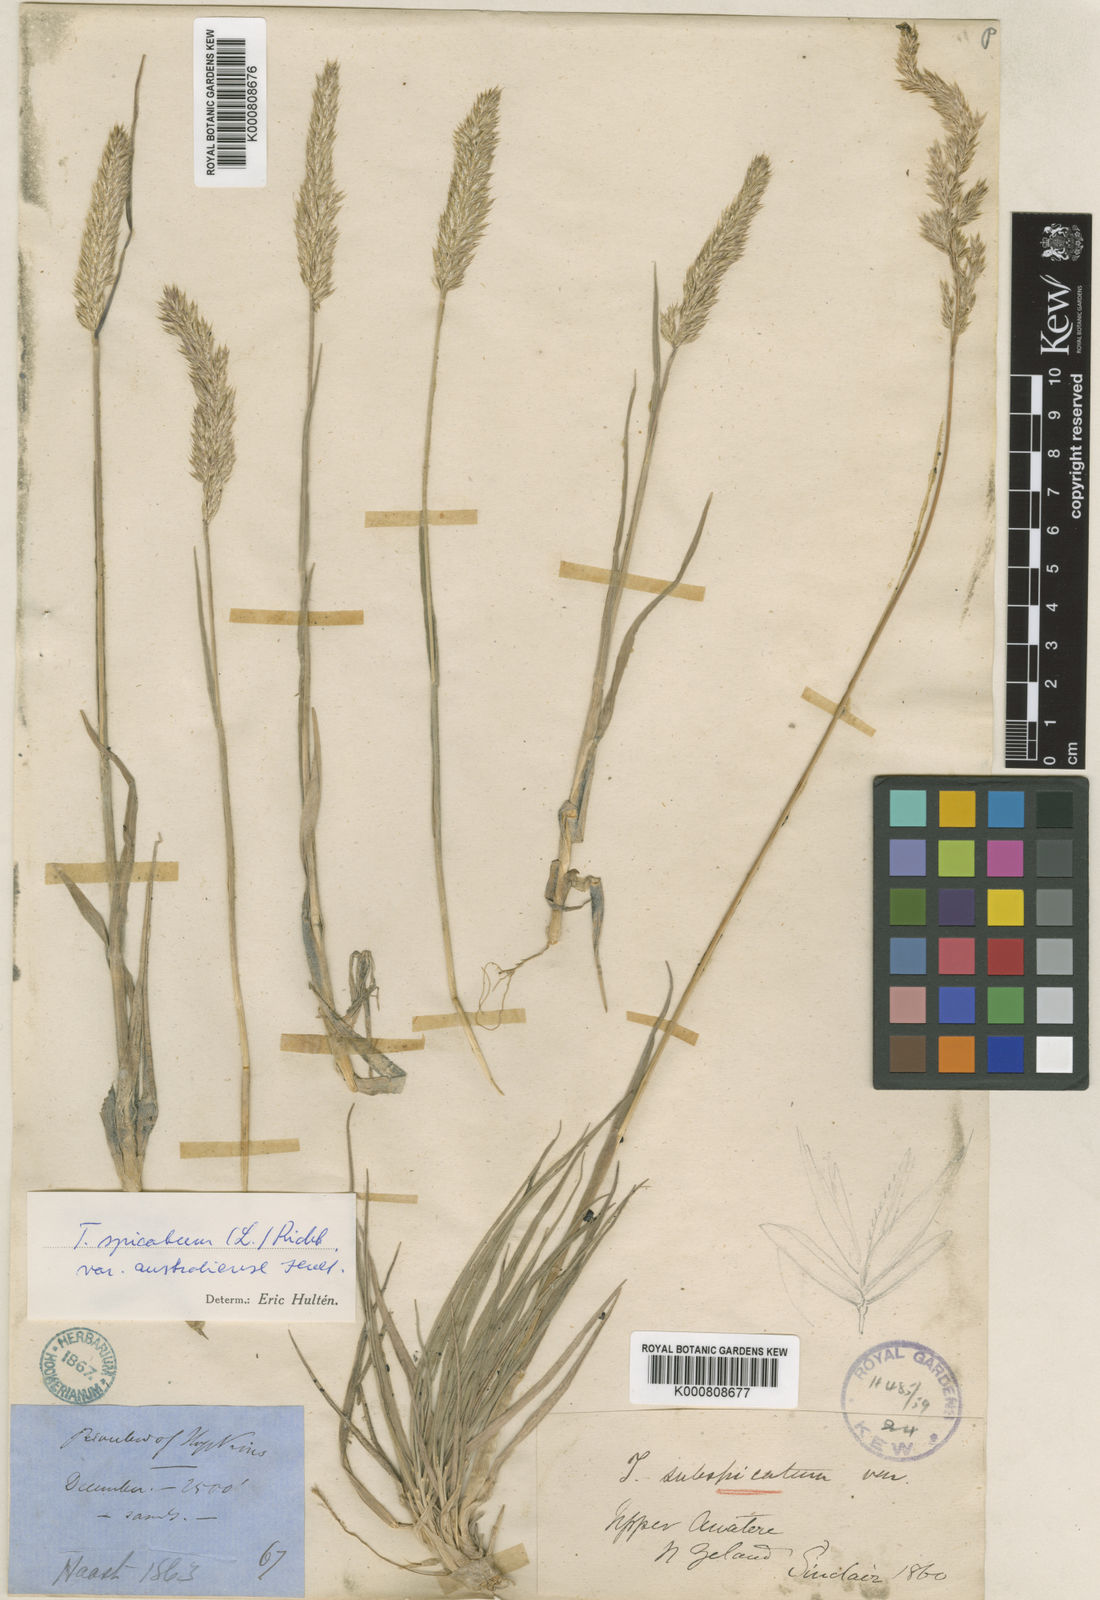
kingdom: Plantae
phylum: Tracheophyta
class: Liliopsida
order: Poales
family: Poaceae
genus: Koeleria
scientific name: Koeleria spicata
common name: Mountain trisetum
